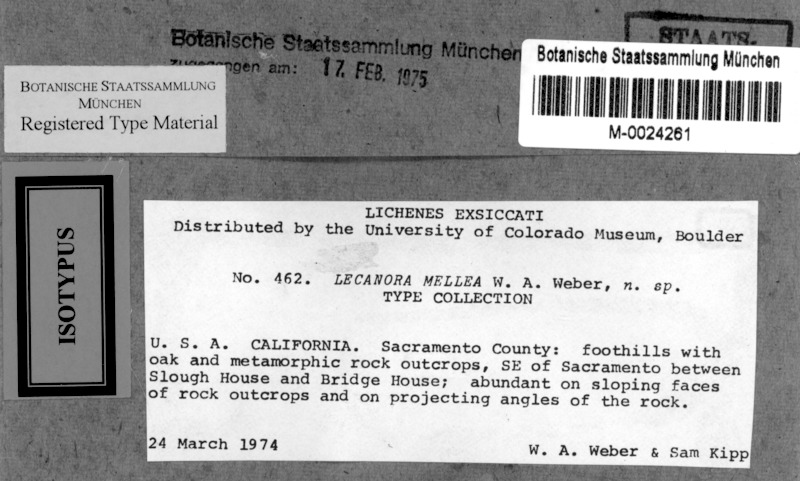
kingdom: Fungi
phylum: Ascomycota
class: Lecanoromycetes
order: Lecanorales
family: Lecanoraceae
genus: Lecanora
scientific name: Lecanora mellea
